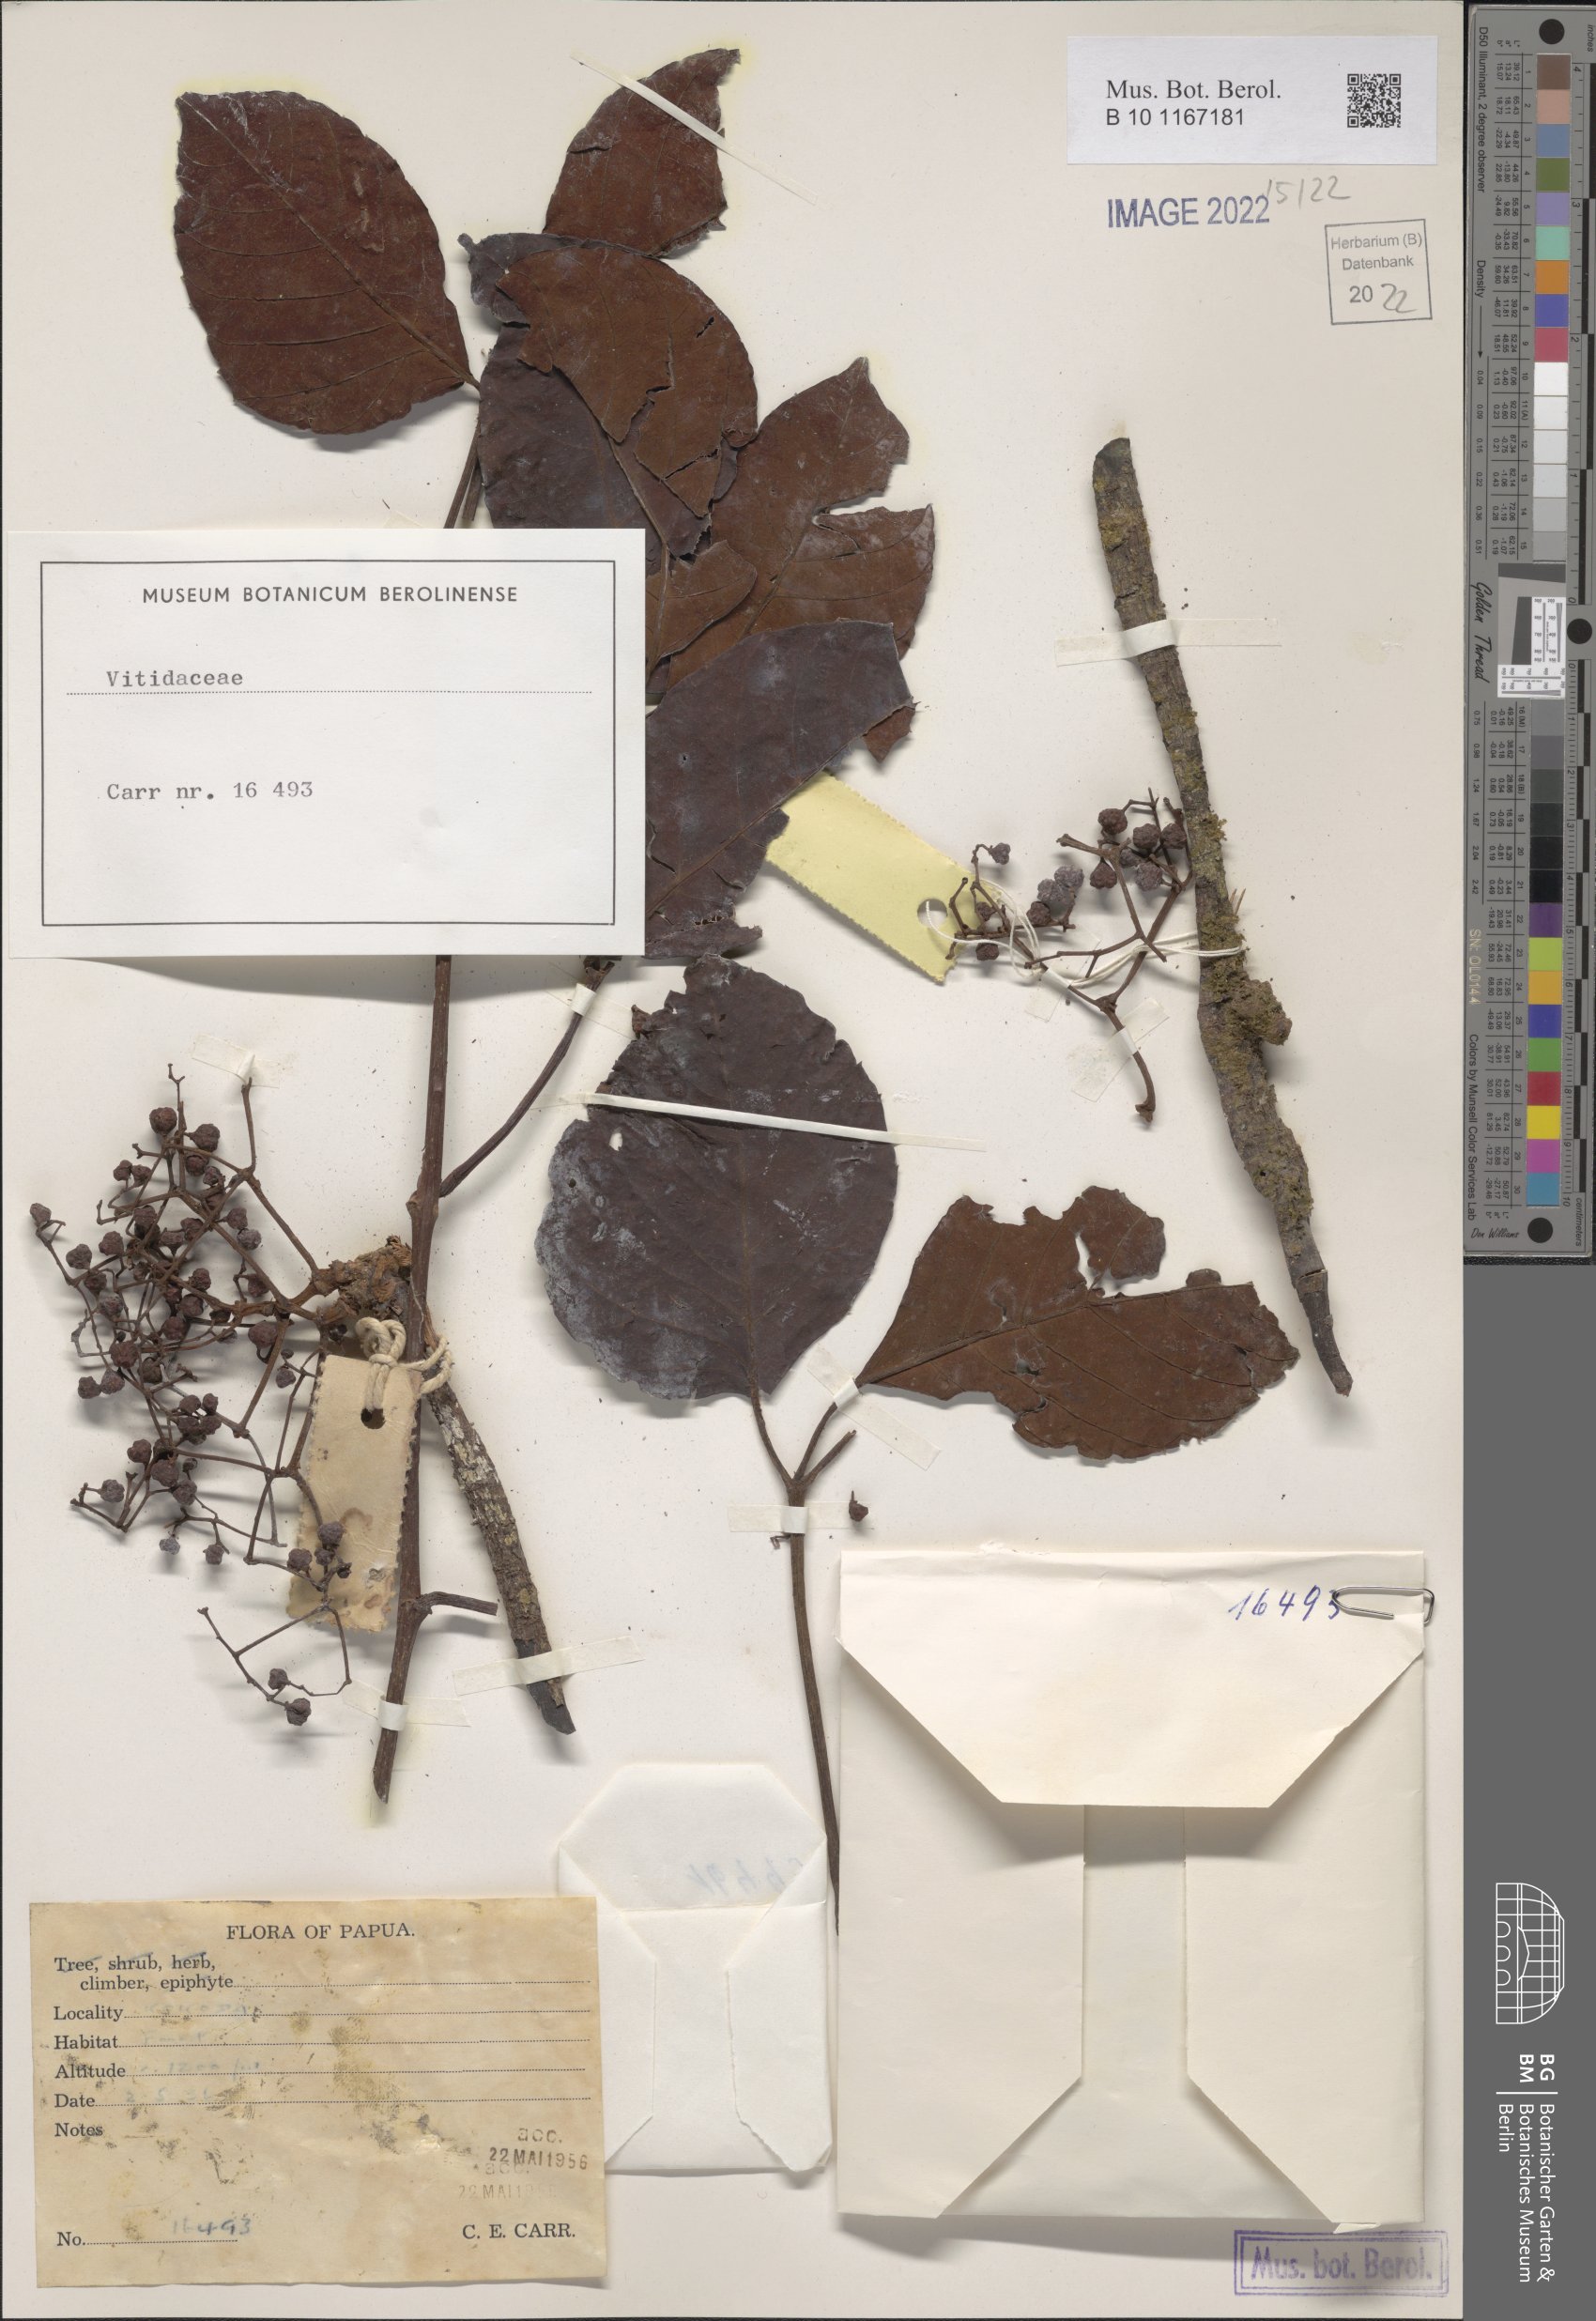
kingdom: Plantae
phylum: Tracheophyta
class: Magnoliopsida
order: Vitales
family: Vitaceae
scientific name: Vitaceae
